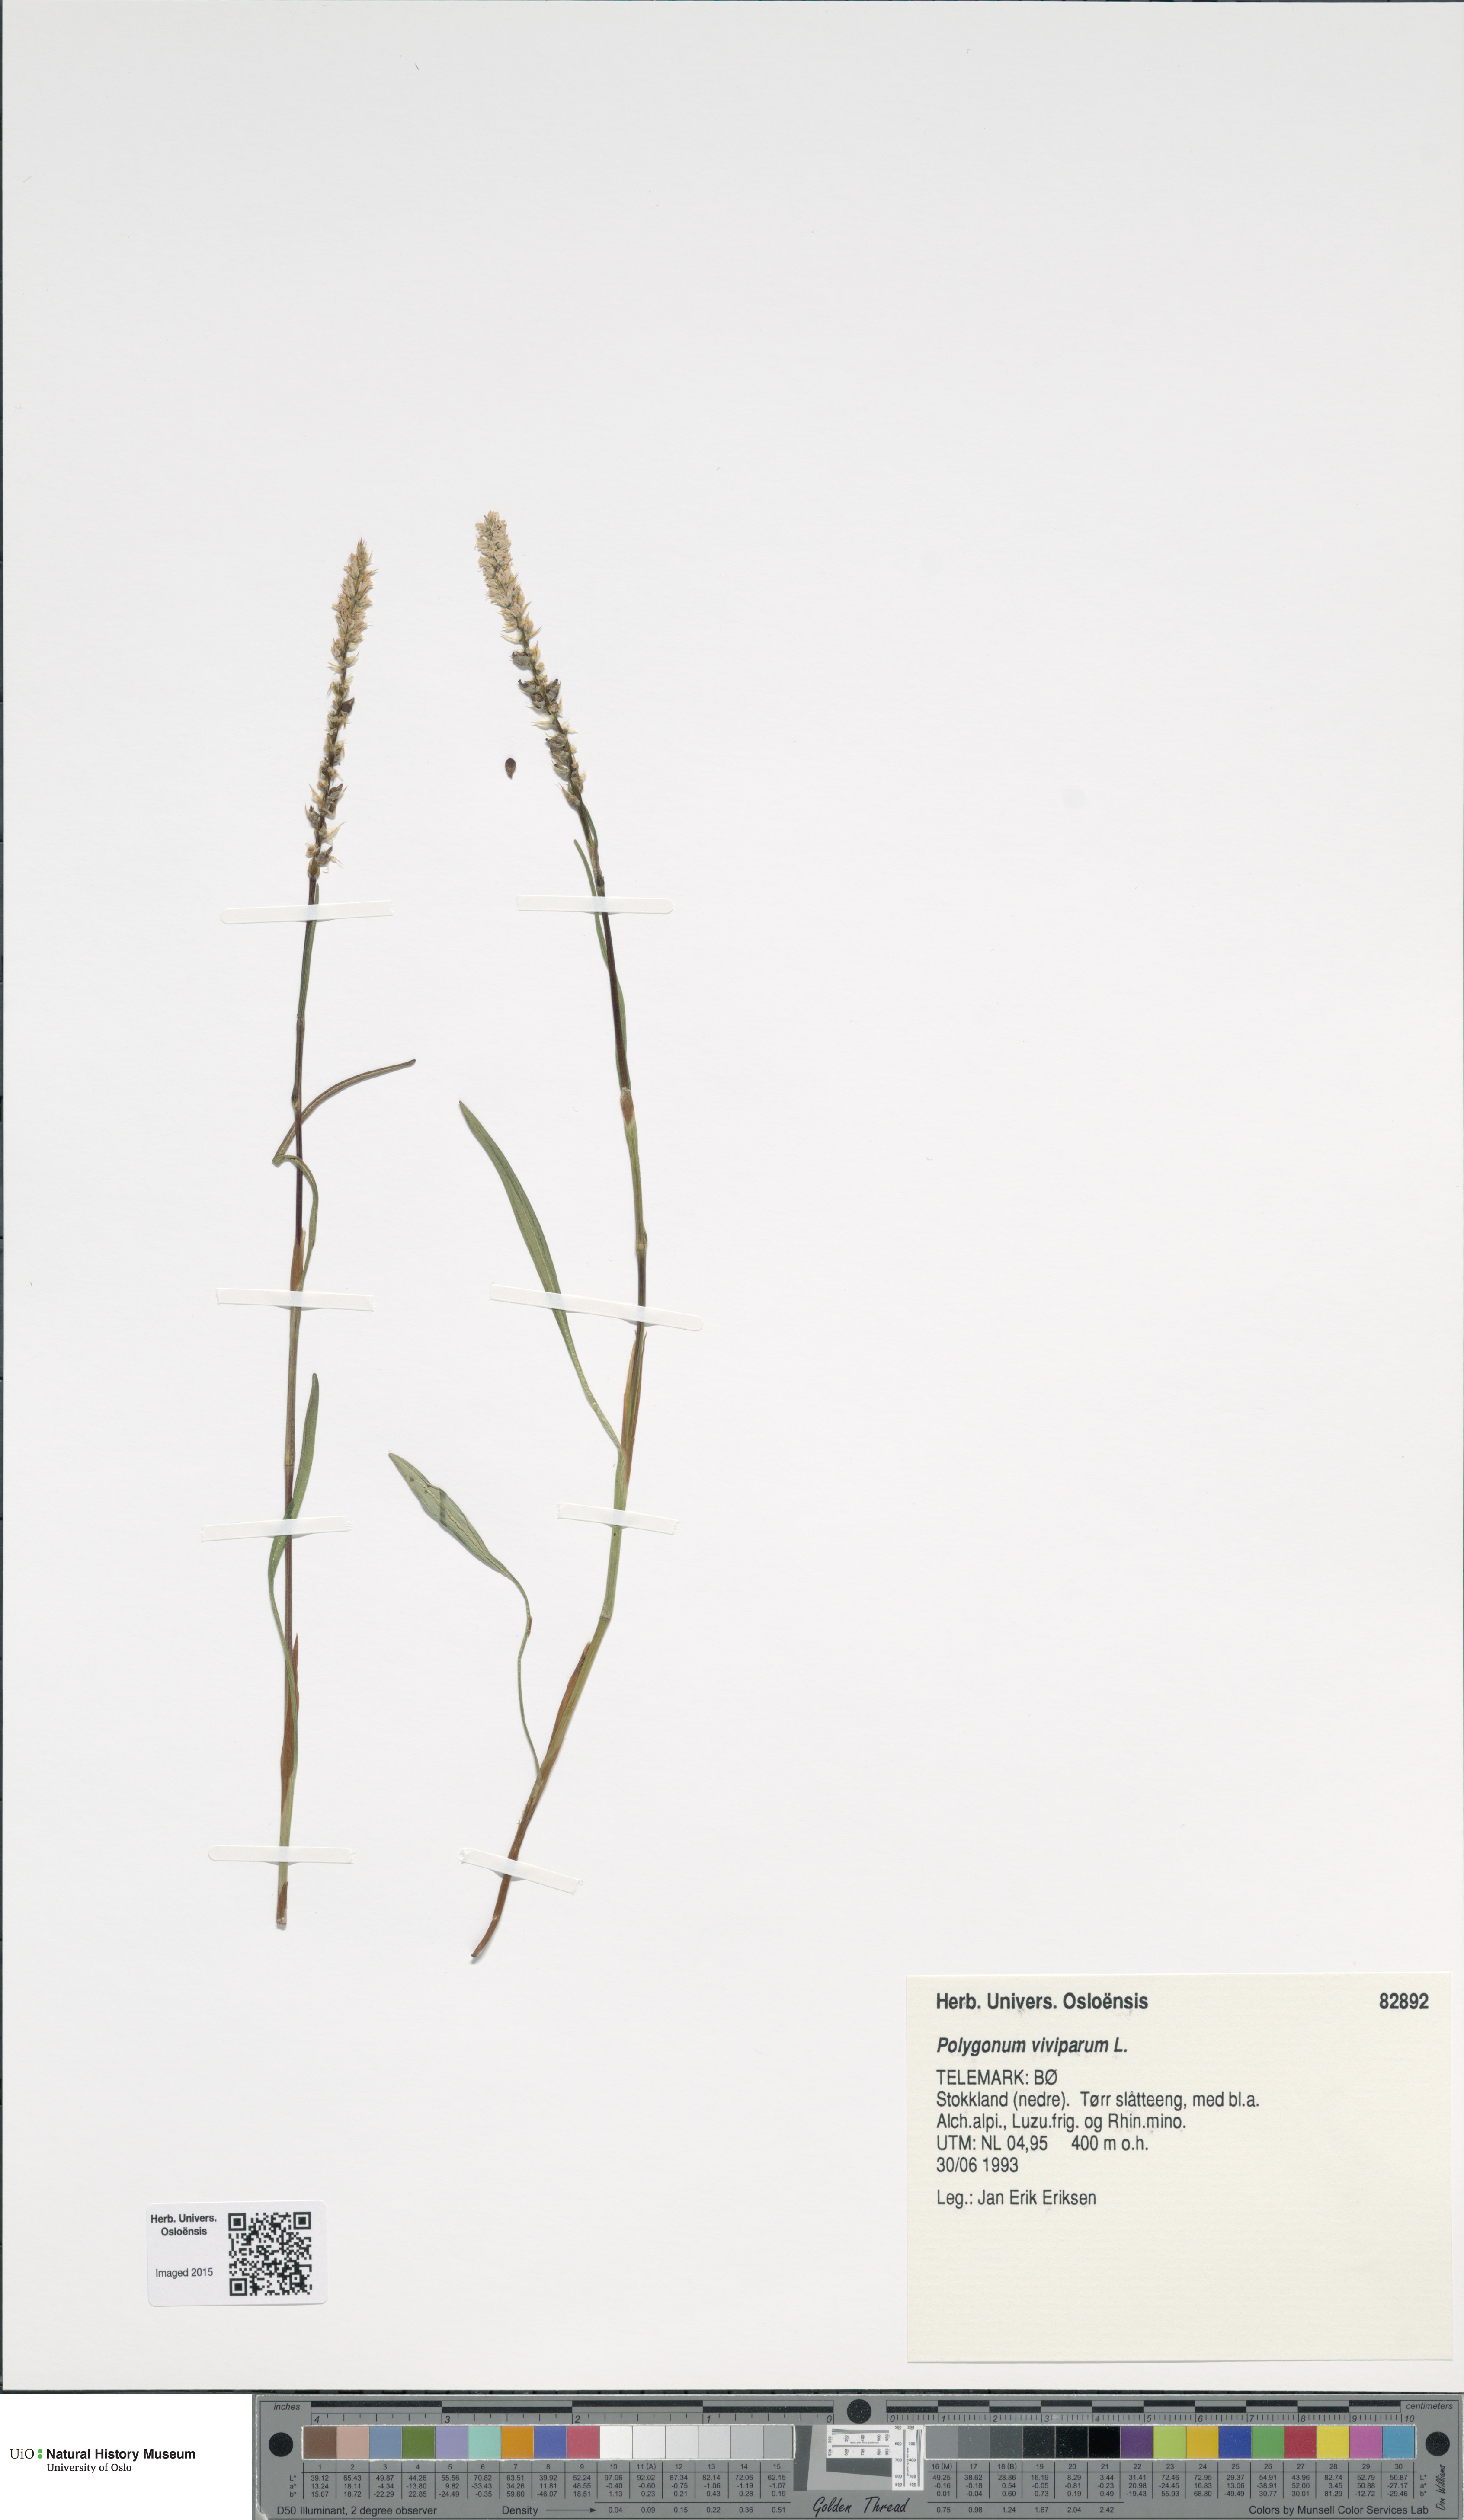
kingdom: Plantae
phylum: Tracheophyta
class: Magnoliopsida
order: Caryophyllales
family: Polygonaceae
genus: Bistorta
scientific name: Bistorta vivipara
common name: Alpine bistort
